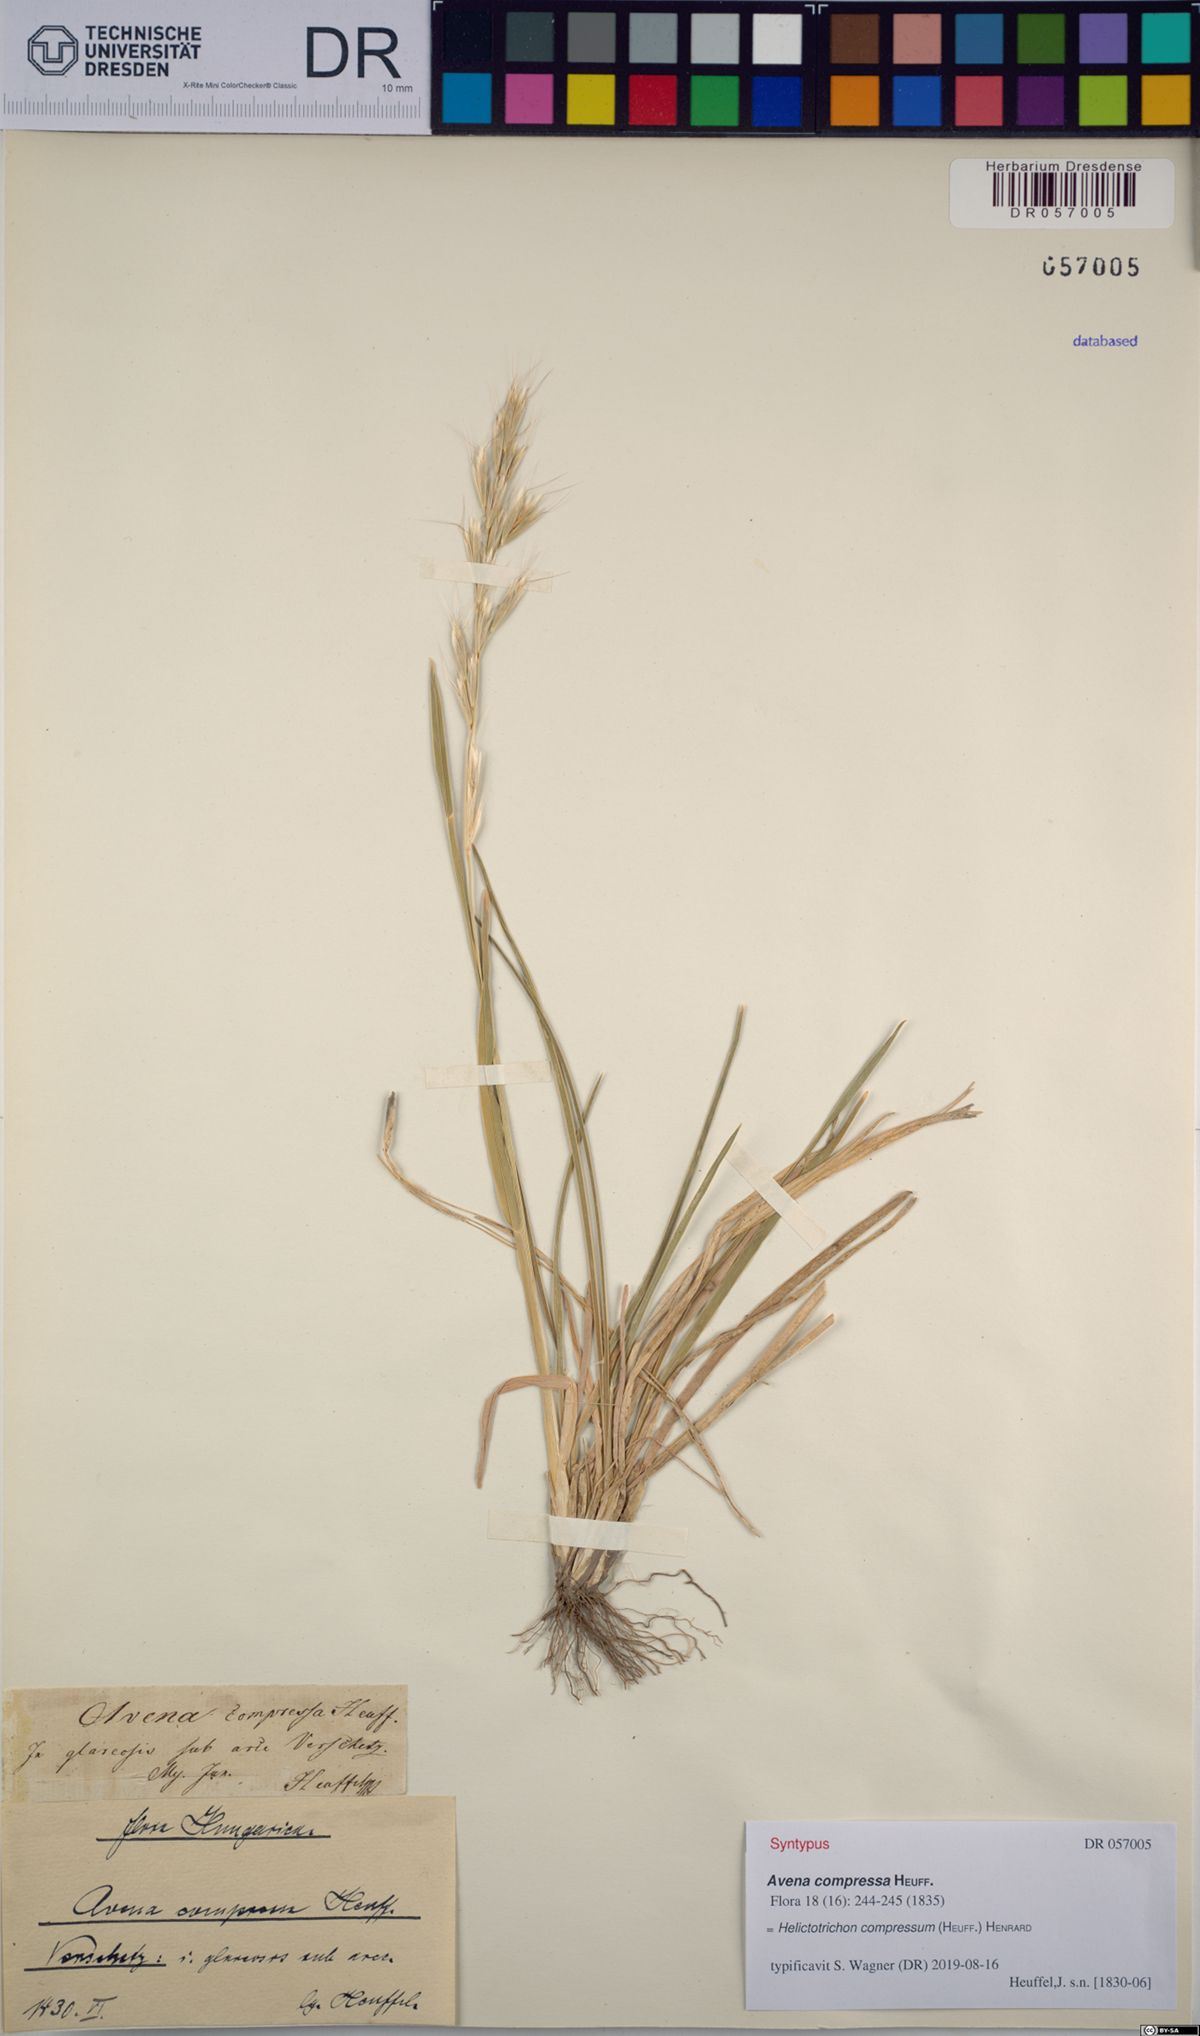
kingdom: Plantae
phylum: Tracheophyta
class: Liliopsida
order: Poales
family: Poaceae
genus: Helictochloa
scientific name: Helictochloa compressa
